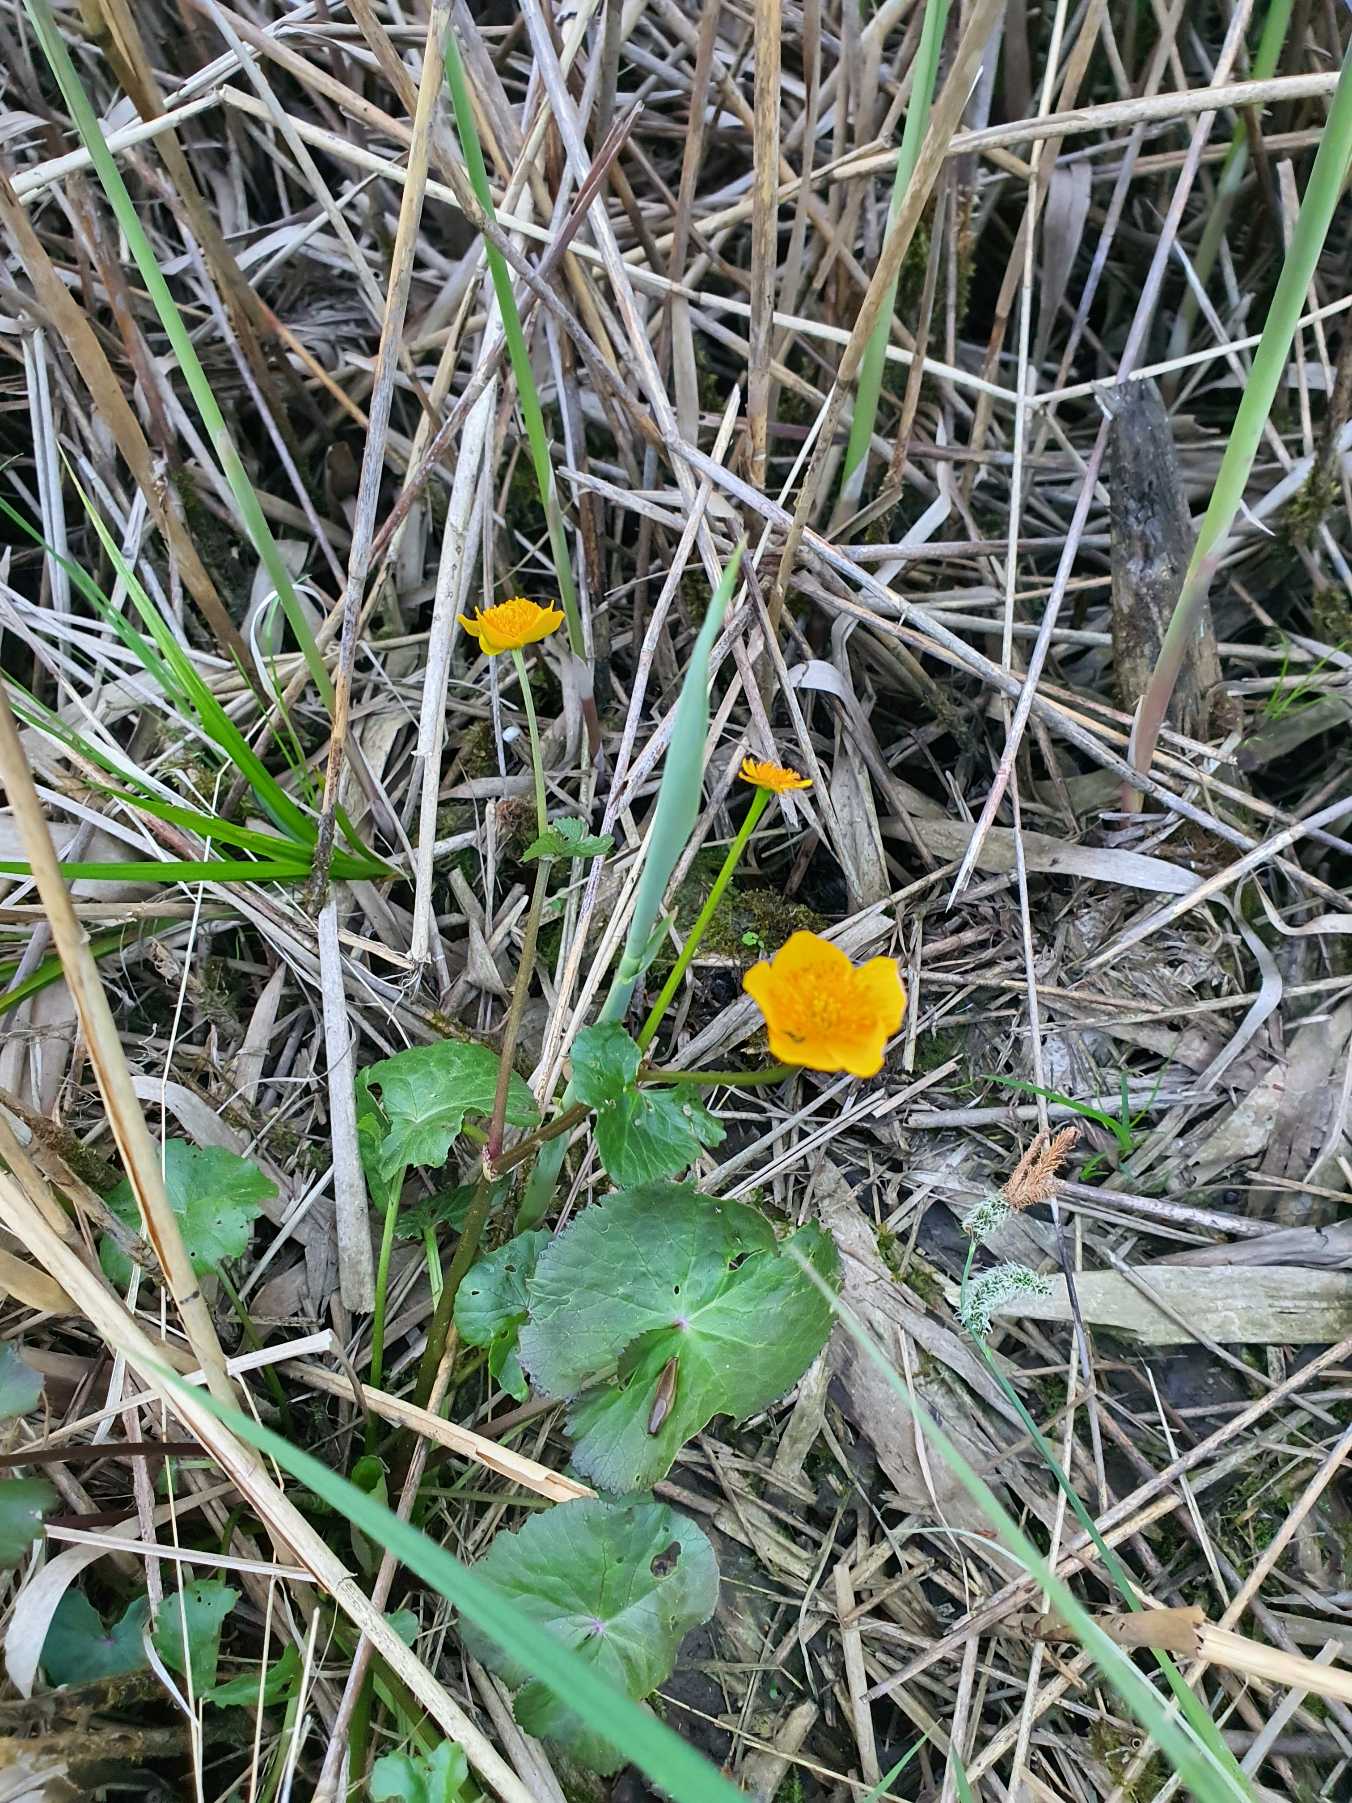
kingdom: Plantae
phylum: Tracheophyta
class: Magnoliopsida
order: Ranunculales
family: Ranunculaceae
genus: Caltha
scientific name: Caltha palustris
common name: Eng-kabbeleje
